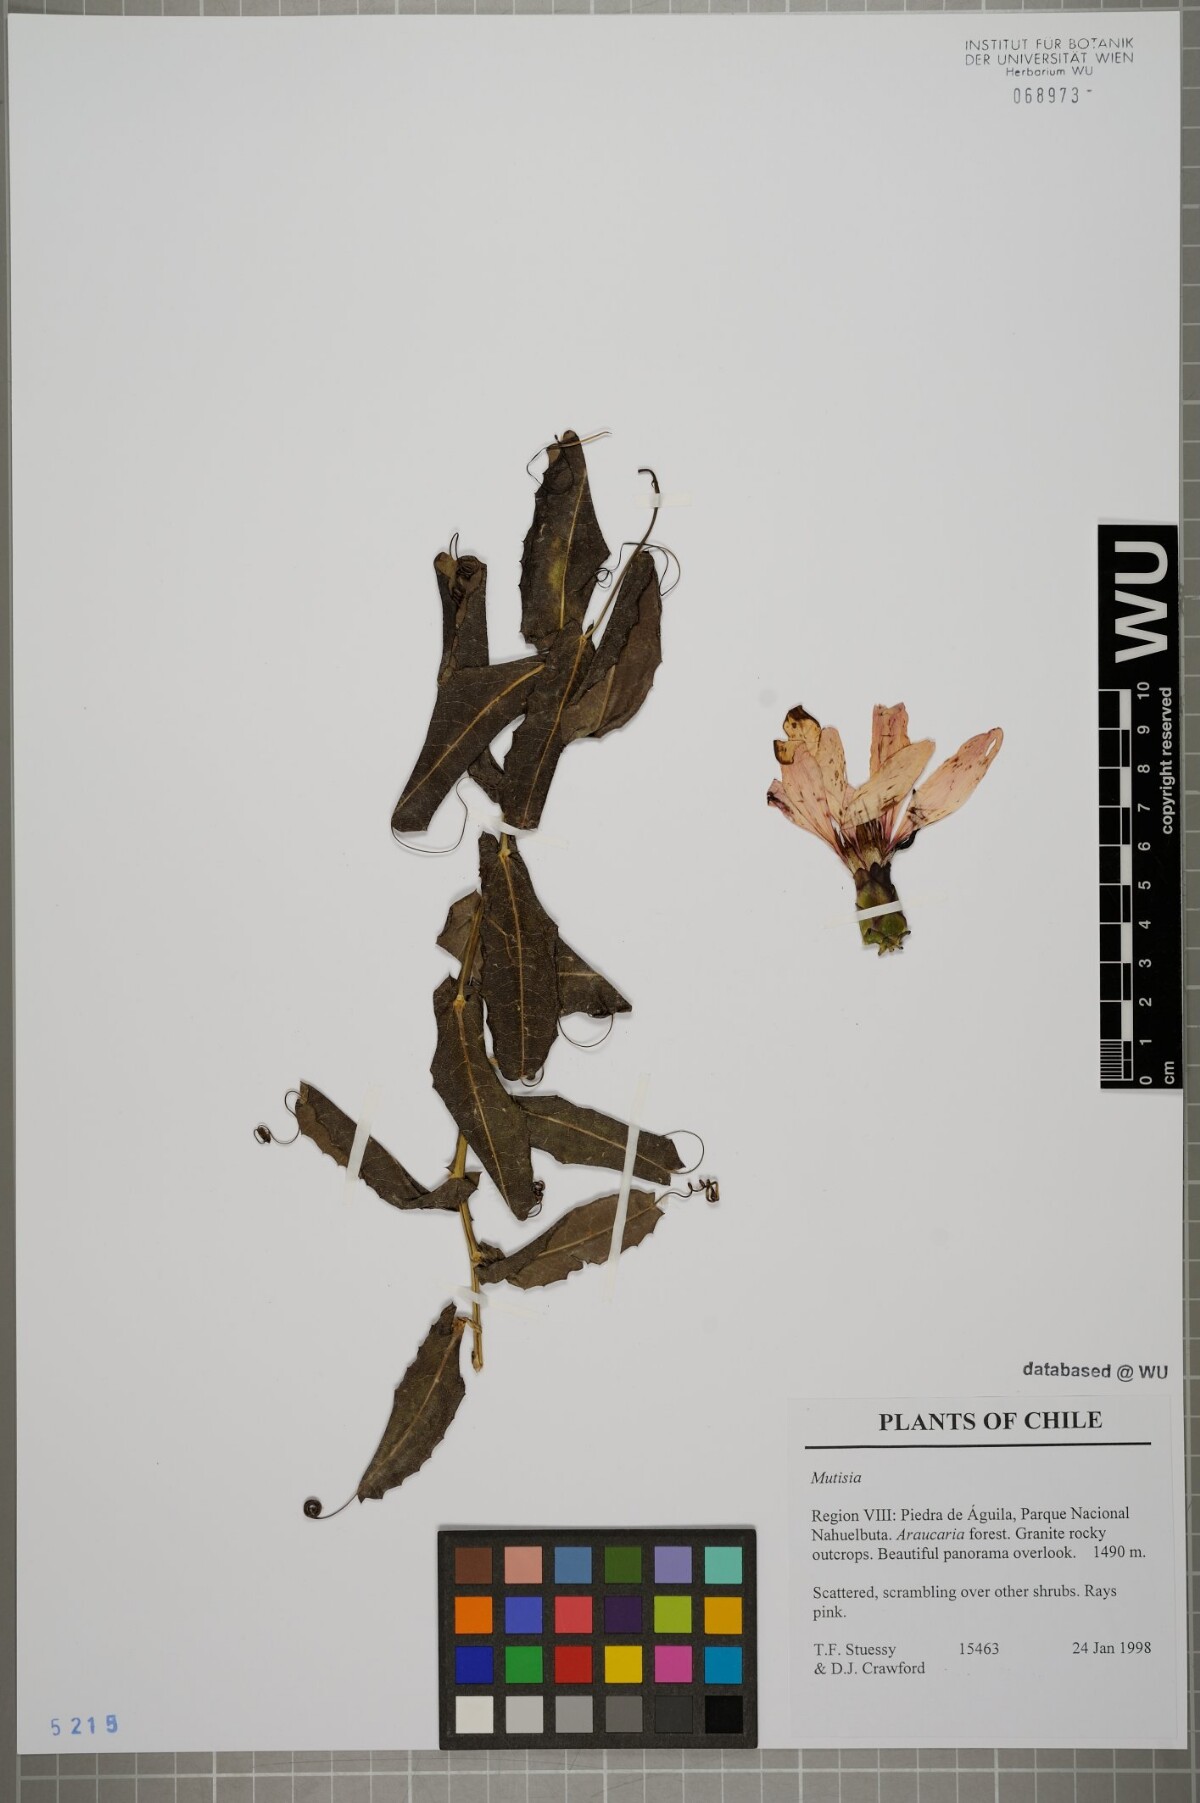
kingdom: Plantae
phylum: Tracheophyta
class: Magnoliopsida
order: Asterales
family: Asteraceae
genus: Mutisia
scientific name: Mutisia
